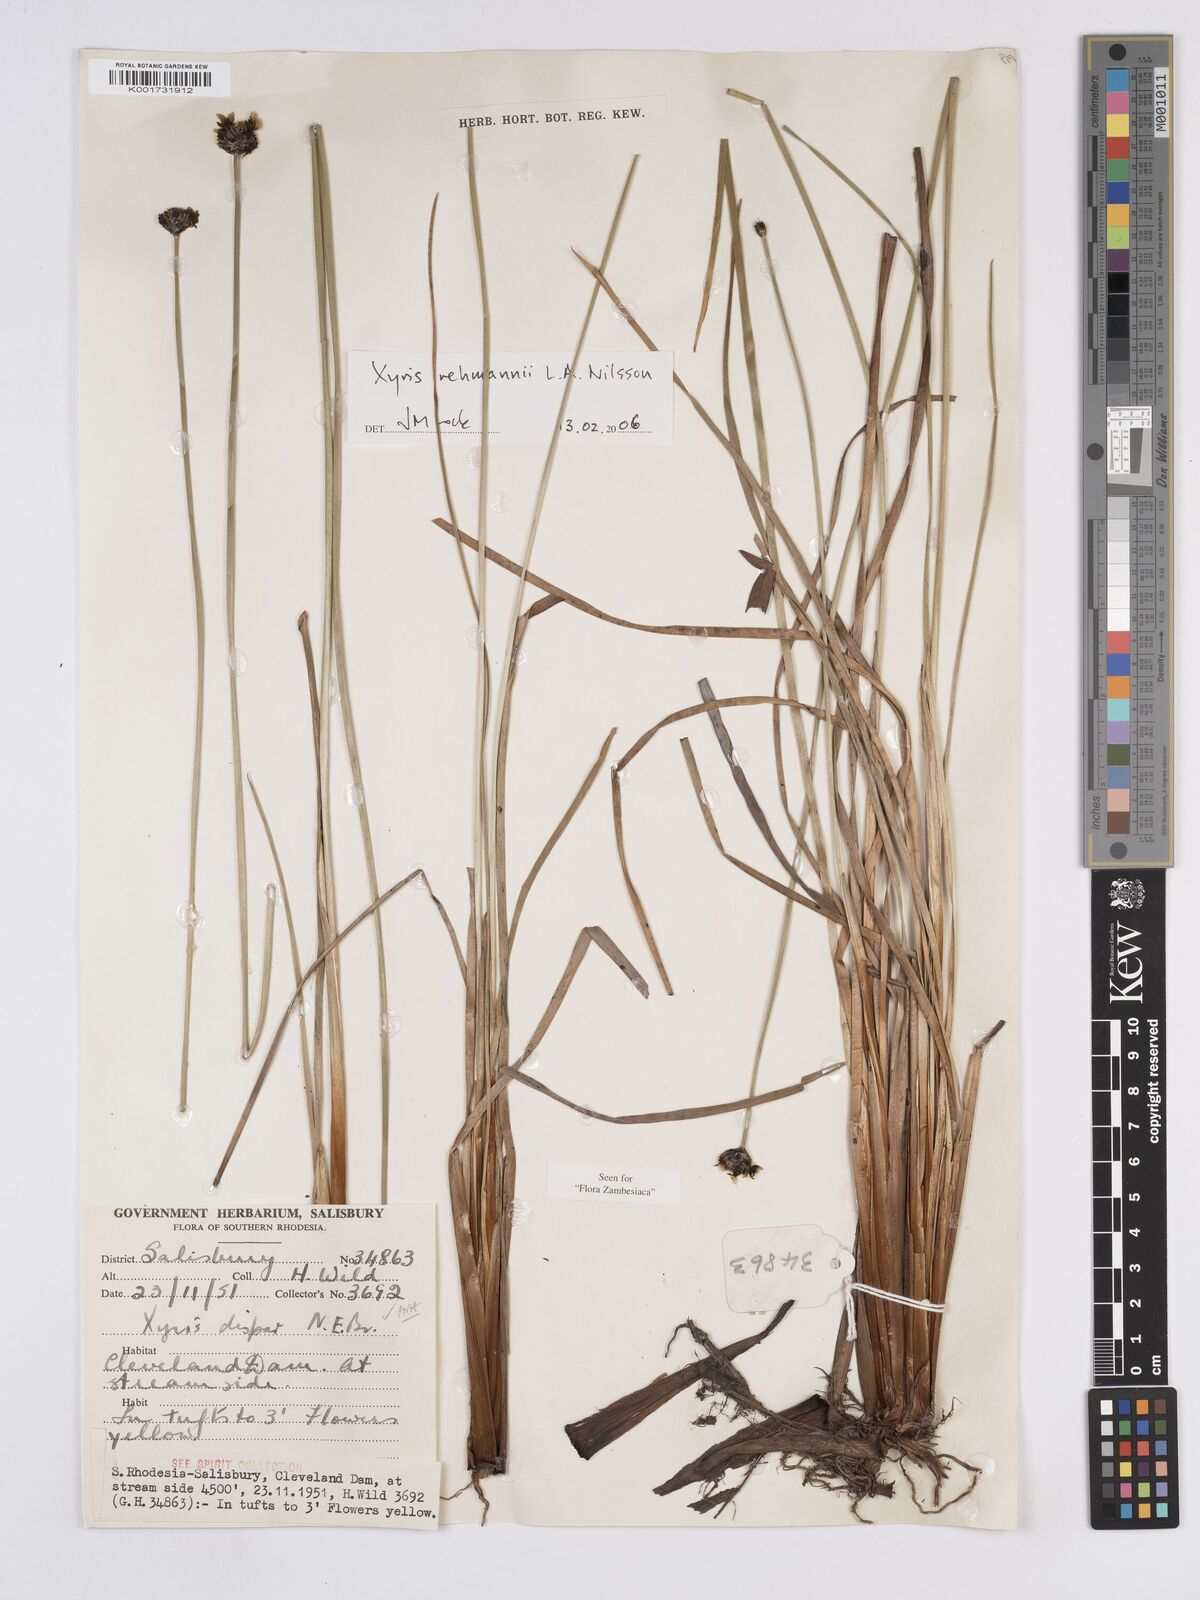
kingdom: Plantae
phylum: Tracheophyta
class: Liliopsida
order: Poales
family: Xyridaceae
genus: Xyris
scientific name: Xyris rehmannii
